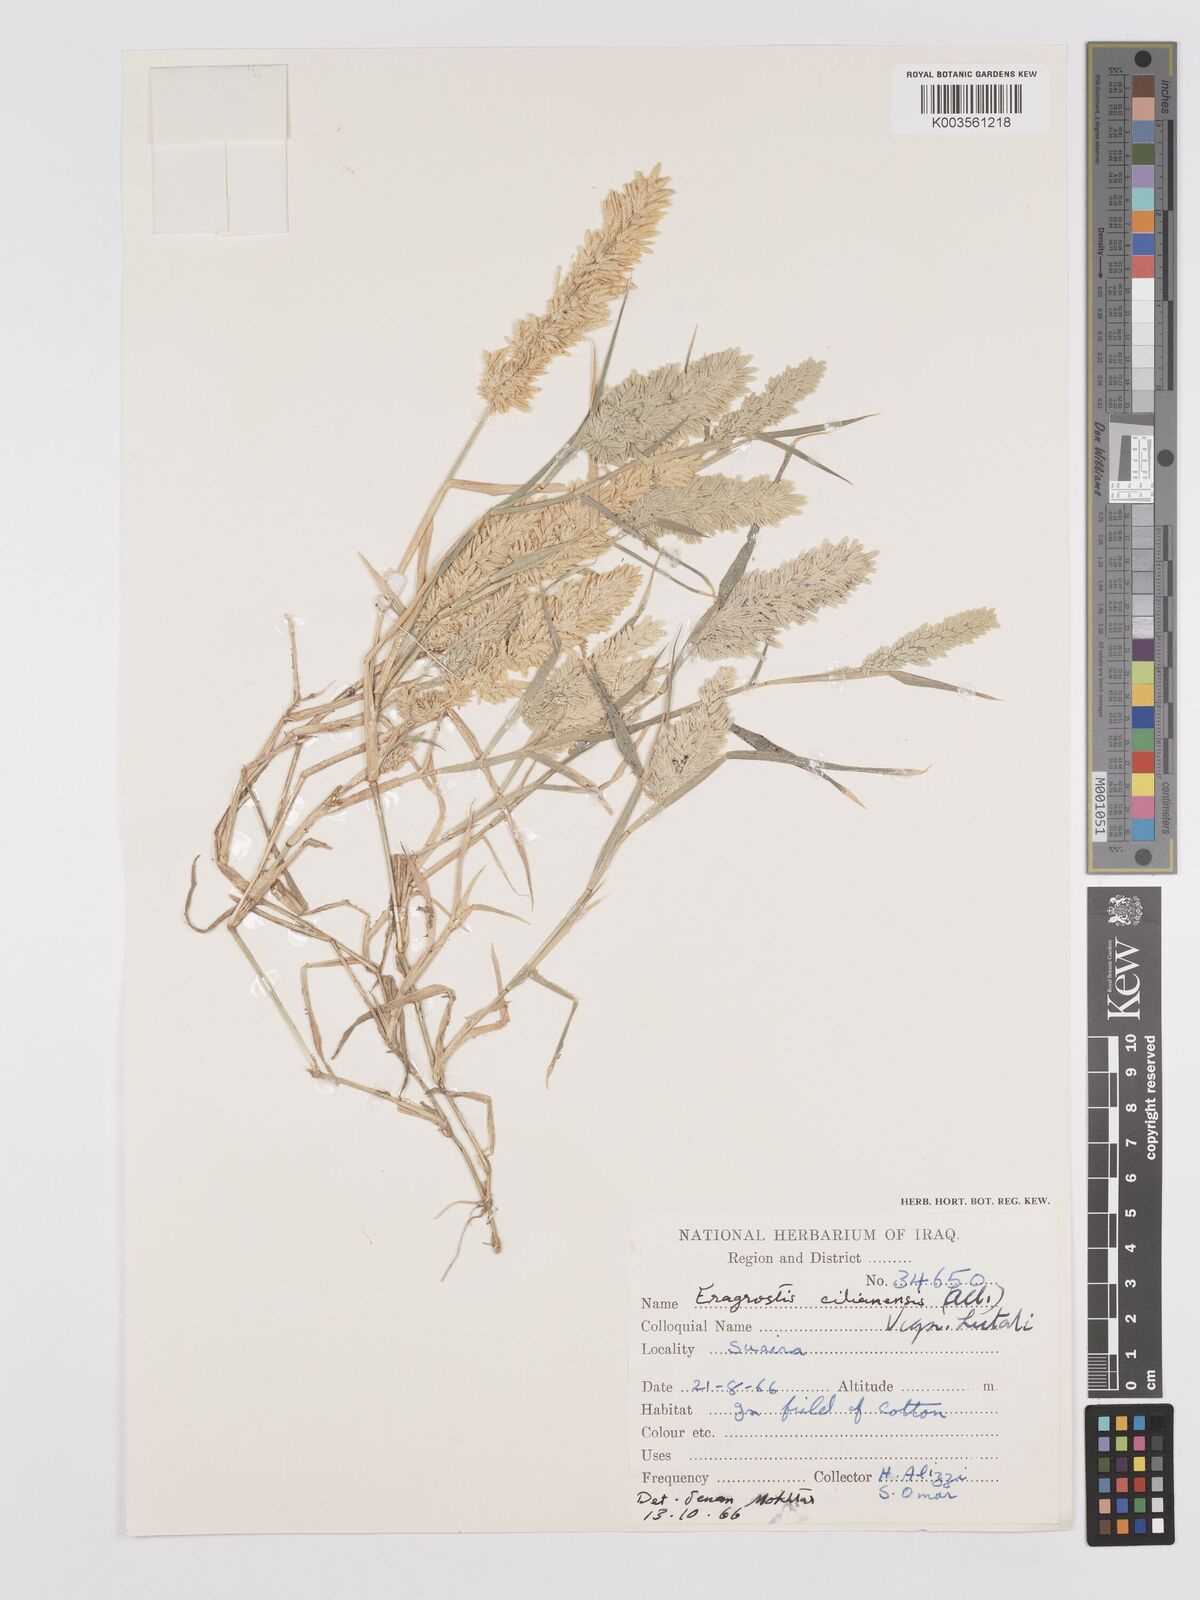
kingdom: Plantae
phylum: Tracheophyta
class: Liliopsida
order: Poales
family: Poaceae
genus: Eragrostis
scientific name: Eragrostis cilianensis
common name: Stinkgrass
